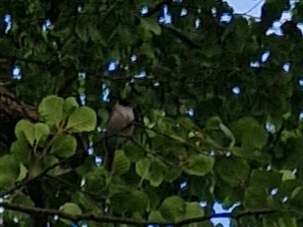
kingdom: Animalia
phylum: Chordata
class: Aves
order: Passeriformes
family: Sylviidae
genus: Sylvia
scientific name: Sylvia atricapilla
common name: Munk
